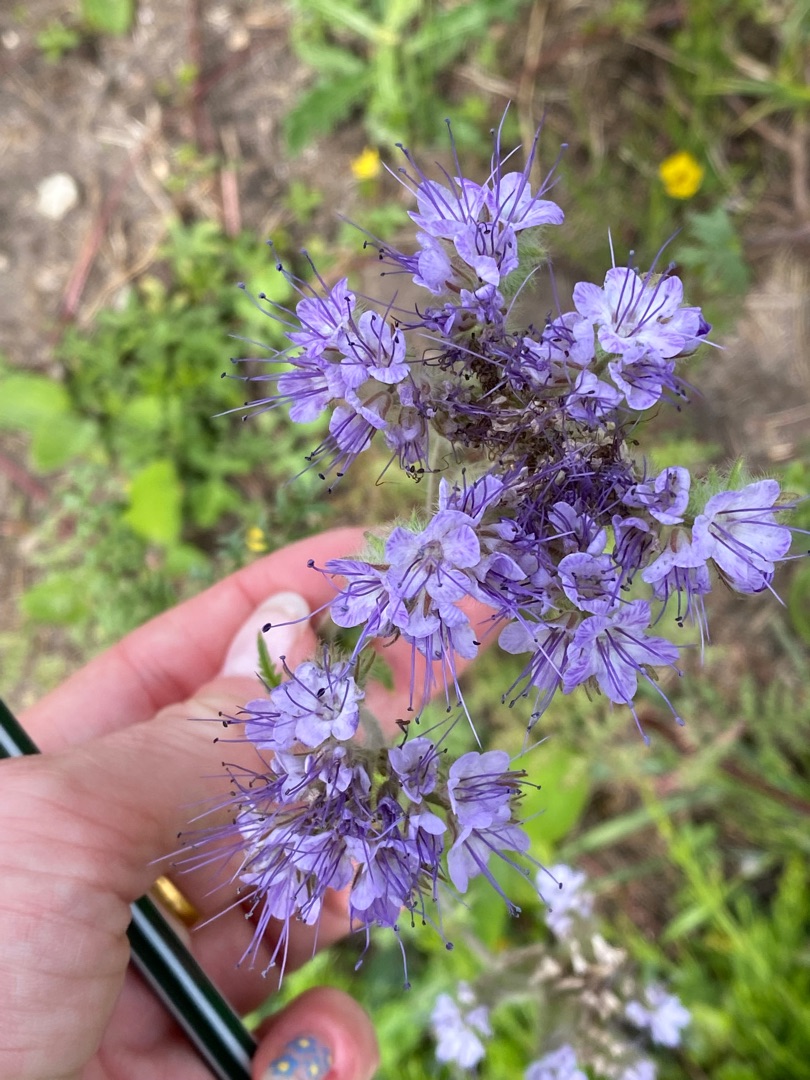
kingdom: Plantae
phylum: Tracheophyta
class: Magnoliopsida
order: Boraginales
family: Hydrophyllaceae
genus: Phacelia
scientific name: Phacelia tanacetifolia
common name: Honningurt
